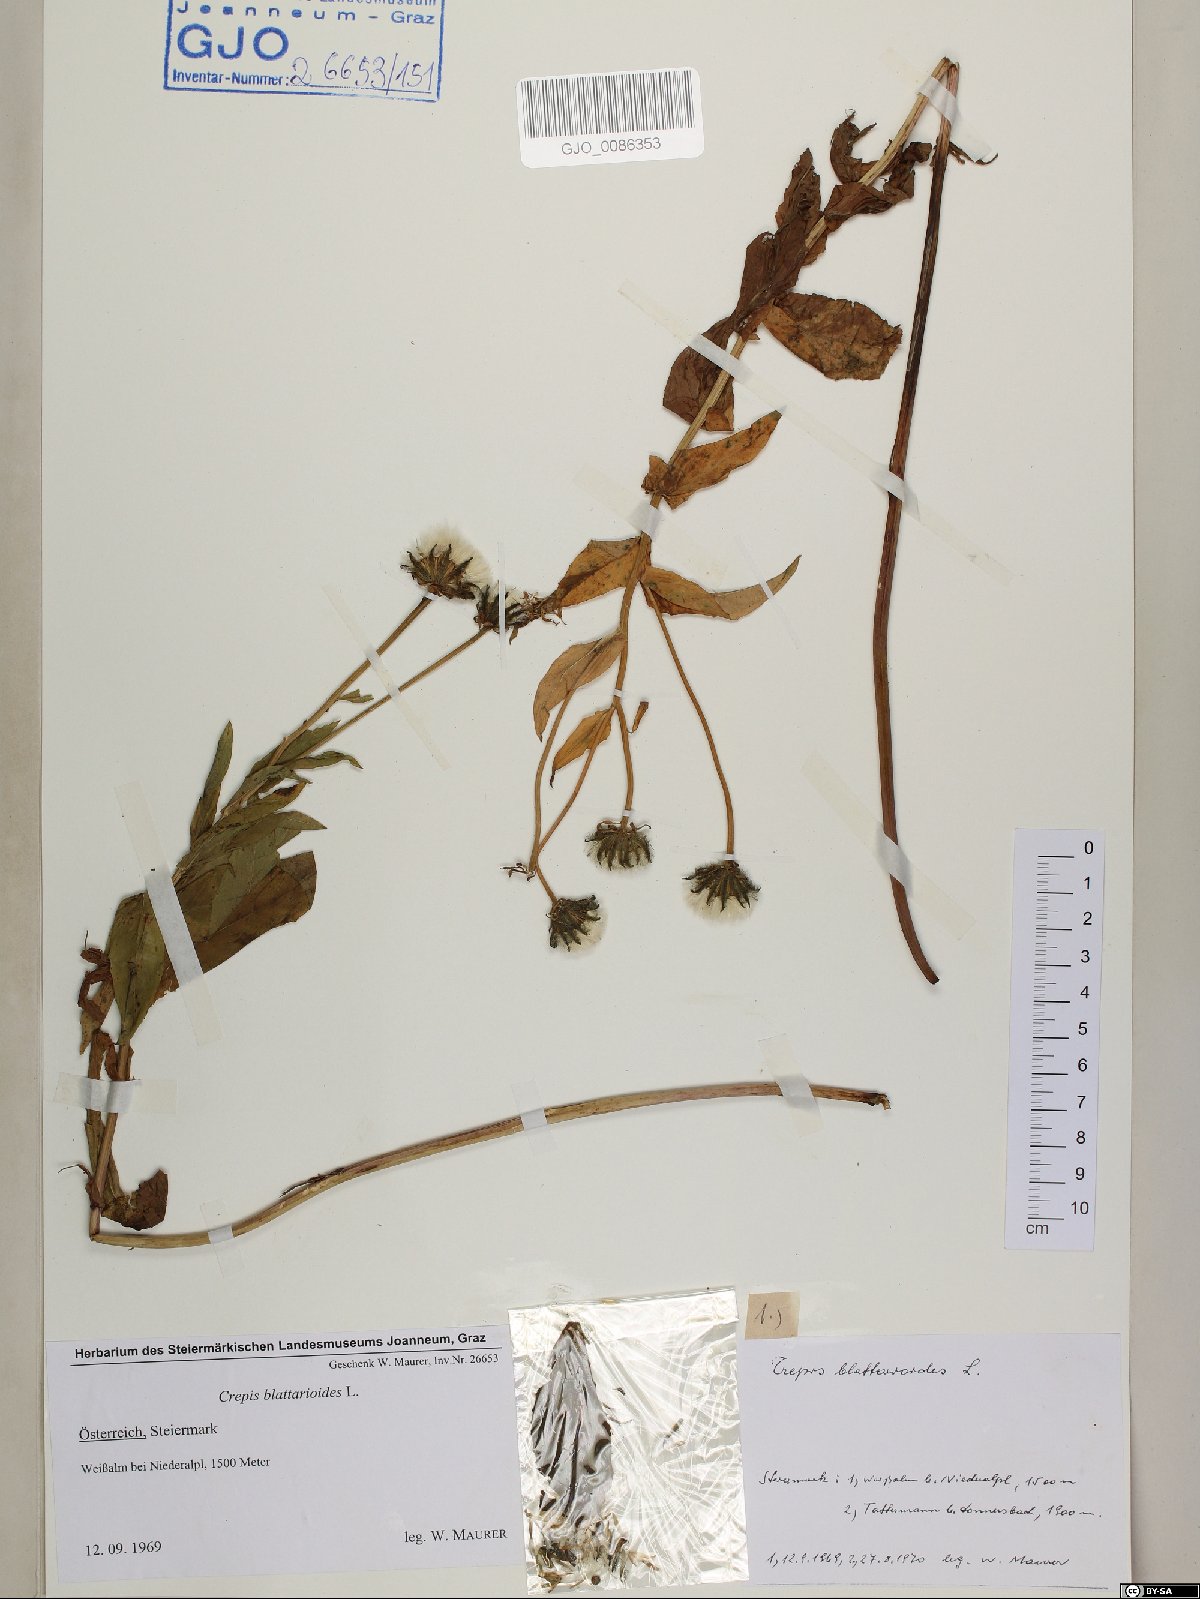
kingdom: Plantae
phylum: Tracheophyta
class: Magnoliopsida
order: Asterales
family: Asteraceae
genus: Crepis
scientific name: Crepis blattarioides
